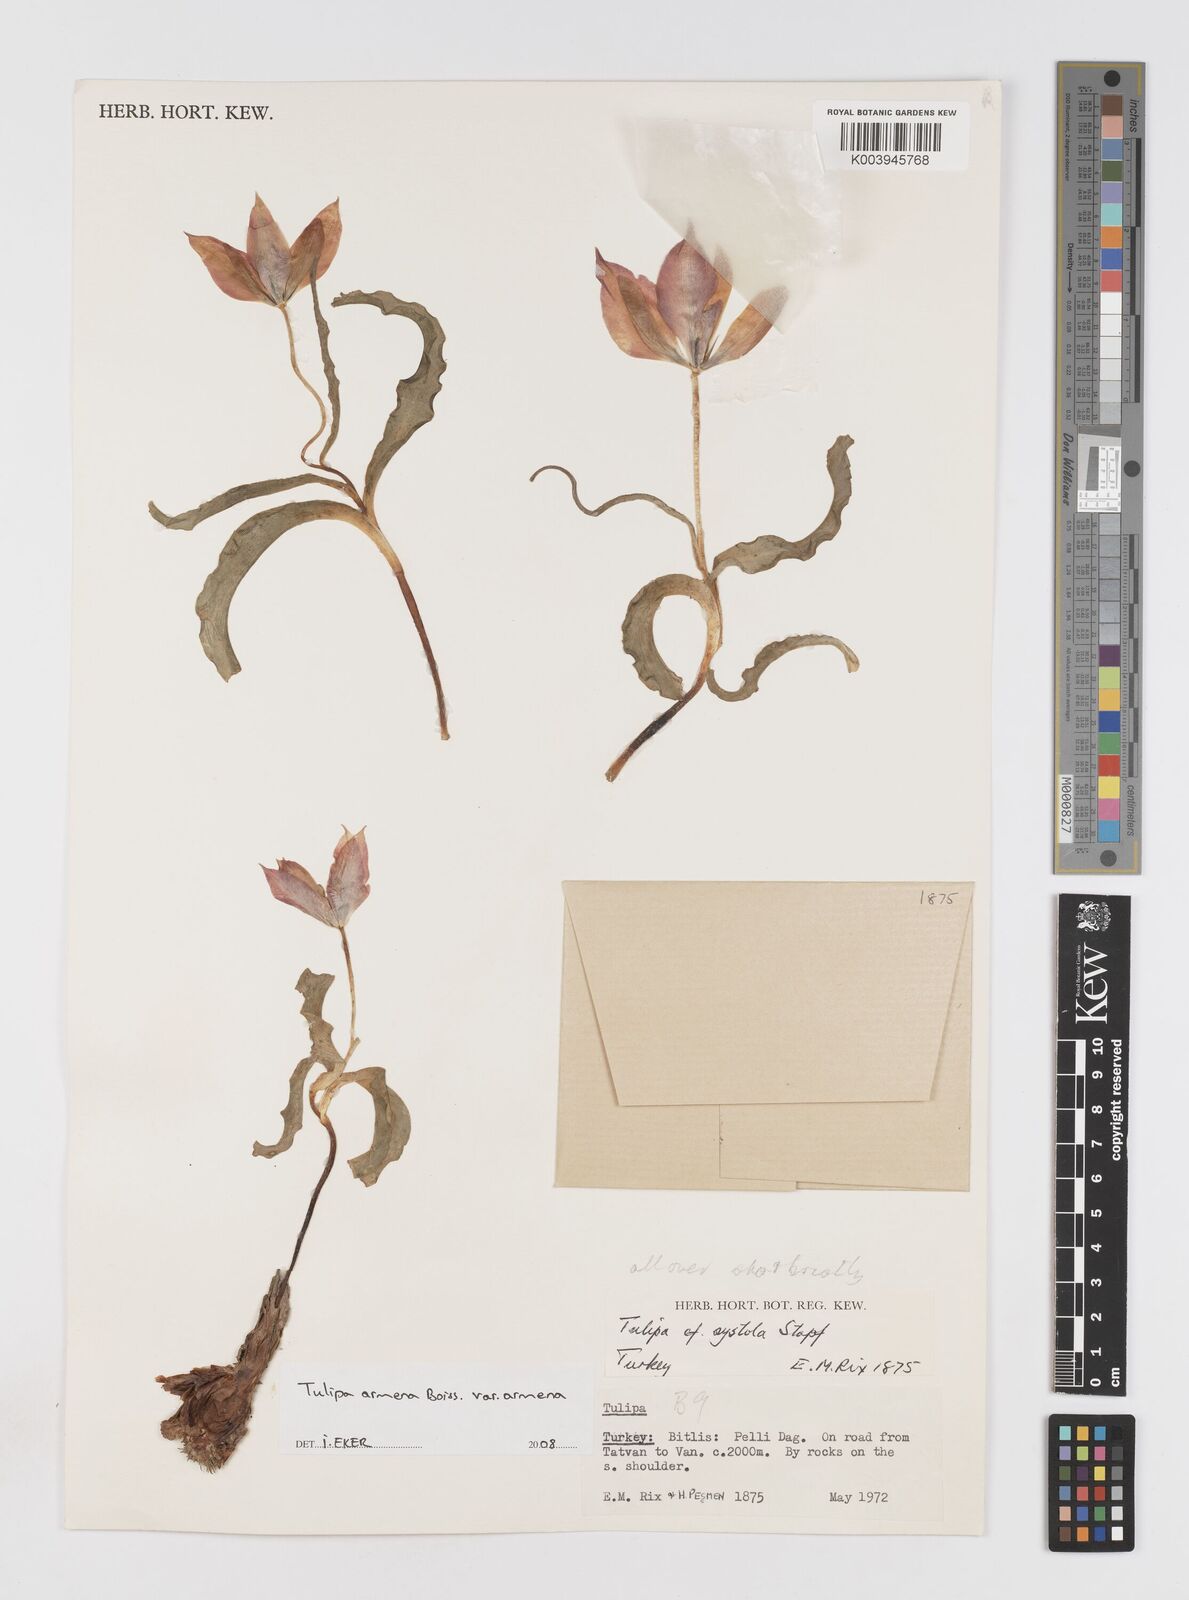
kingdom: Plantae
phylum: Tracheophyta
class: Liliopsida
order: Liliales
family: Liliaceae
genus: Tulipa
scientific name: Tulipa foliosa
